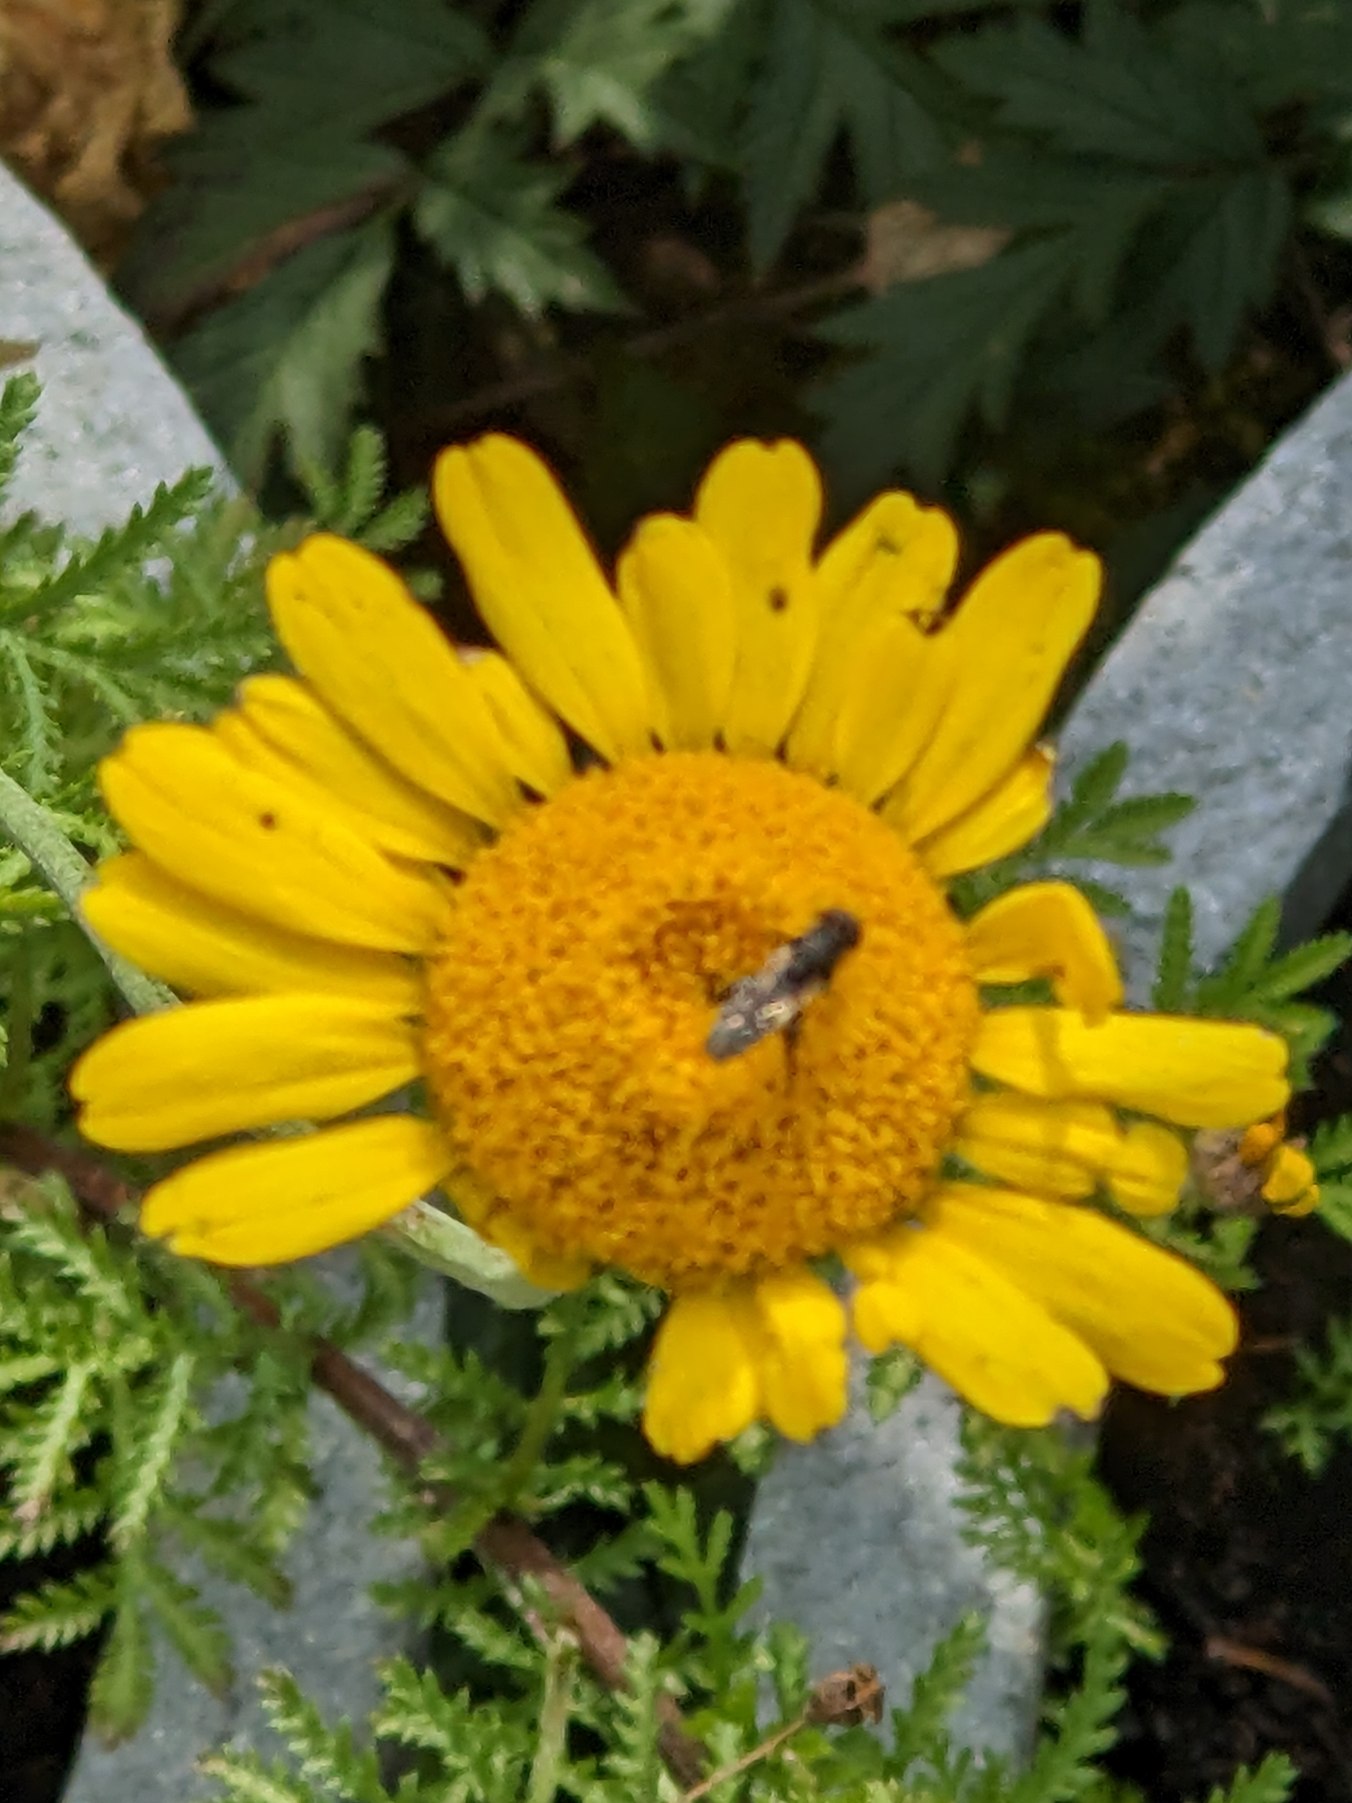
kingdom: Animalia
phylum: Arthropoda
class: Insecta
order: Diptera
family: Syrphidae
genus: Syritta
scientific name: Syritta pipiens
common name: Kompost-svirreflue
